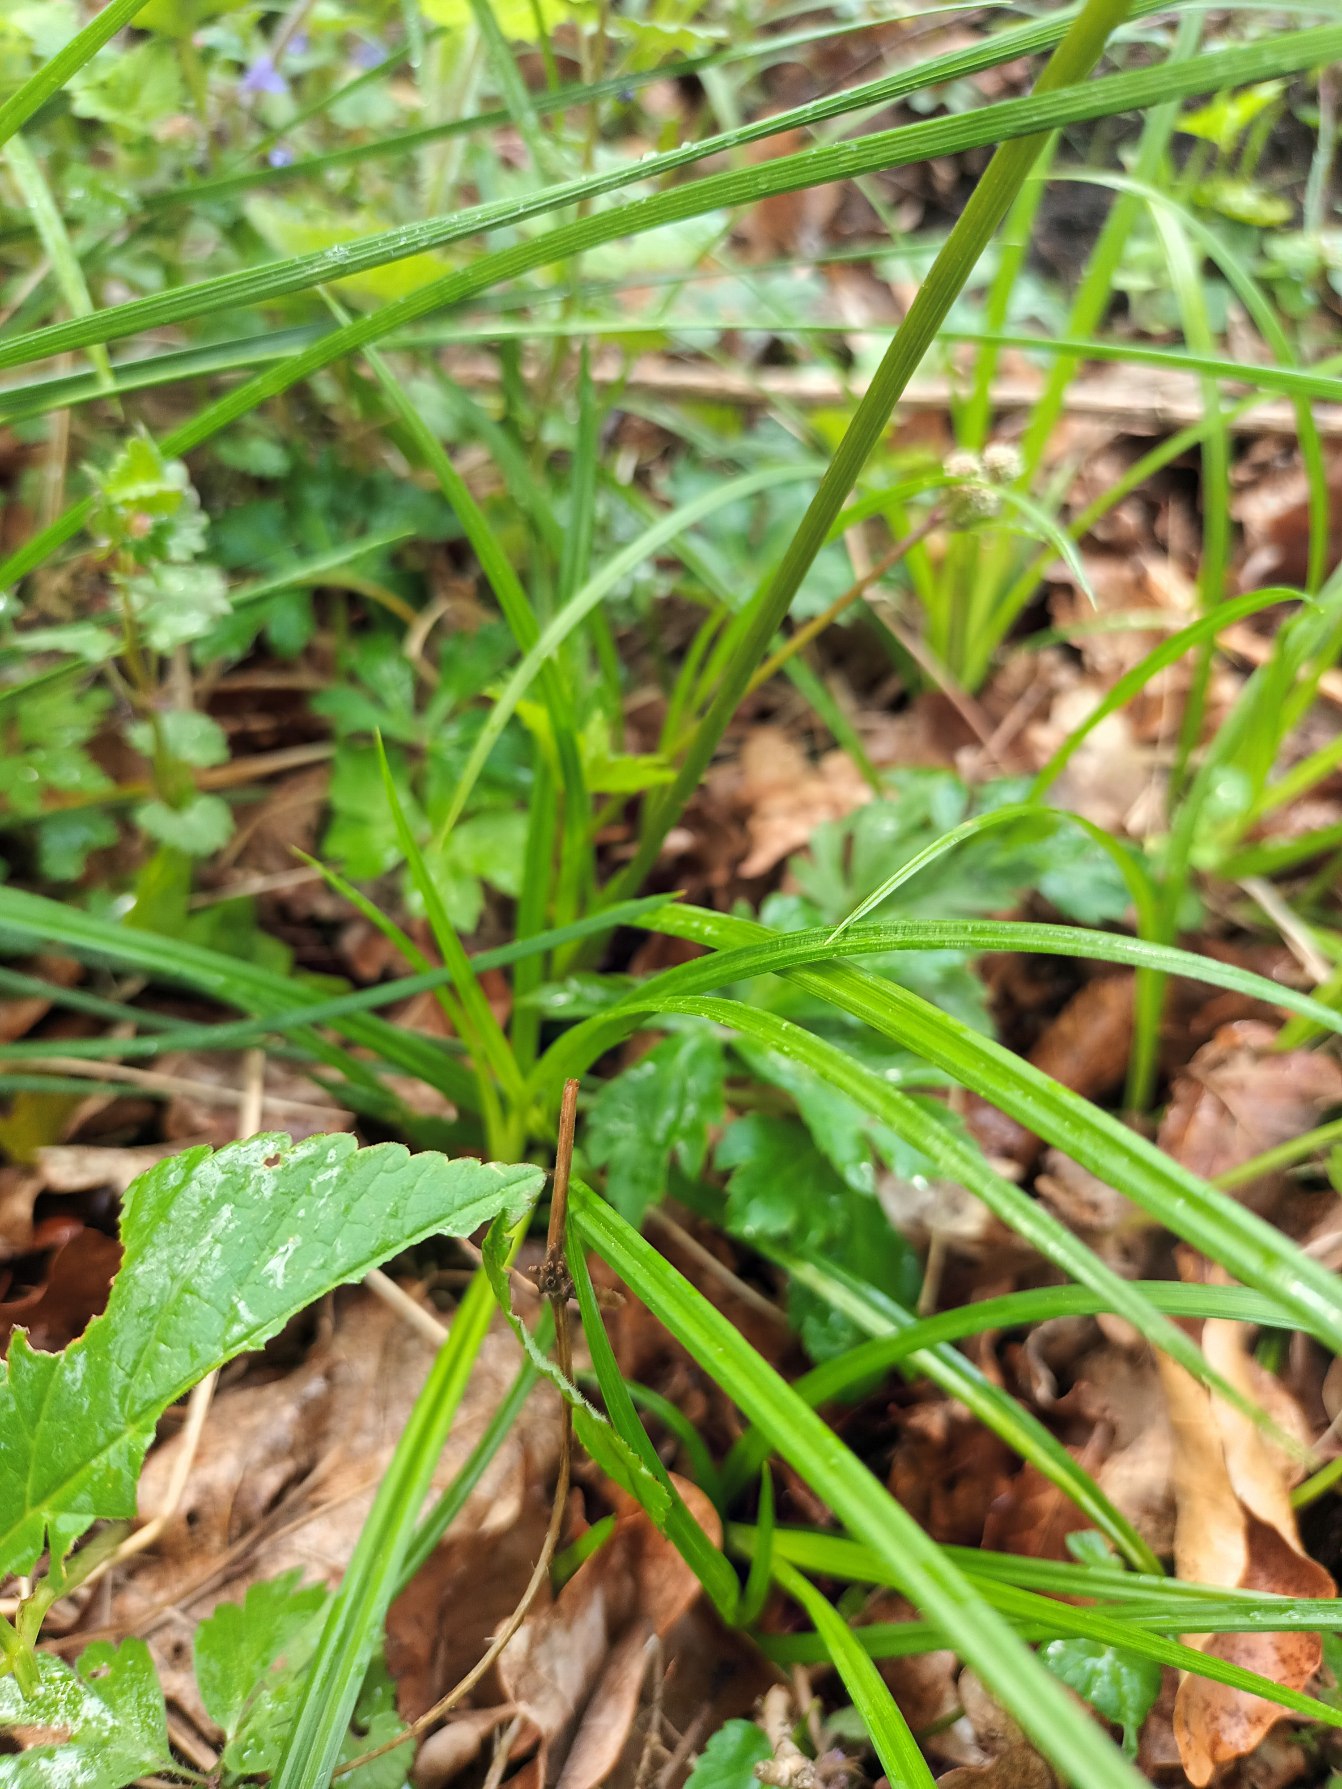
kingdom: Plantae
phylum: Tracheophyta
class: Magnoliopsida
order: Apiales
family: Apiaceae
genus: Sanicula
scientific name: Sanicula europaea
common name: Sanikel
